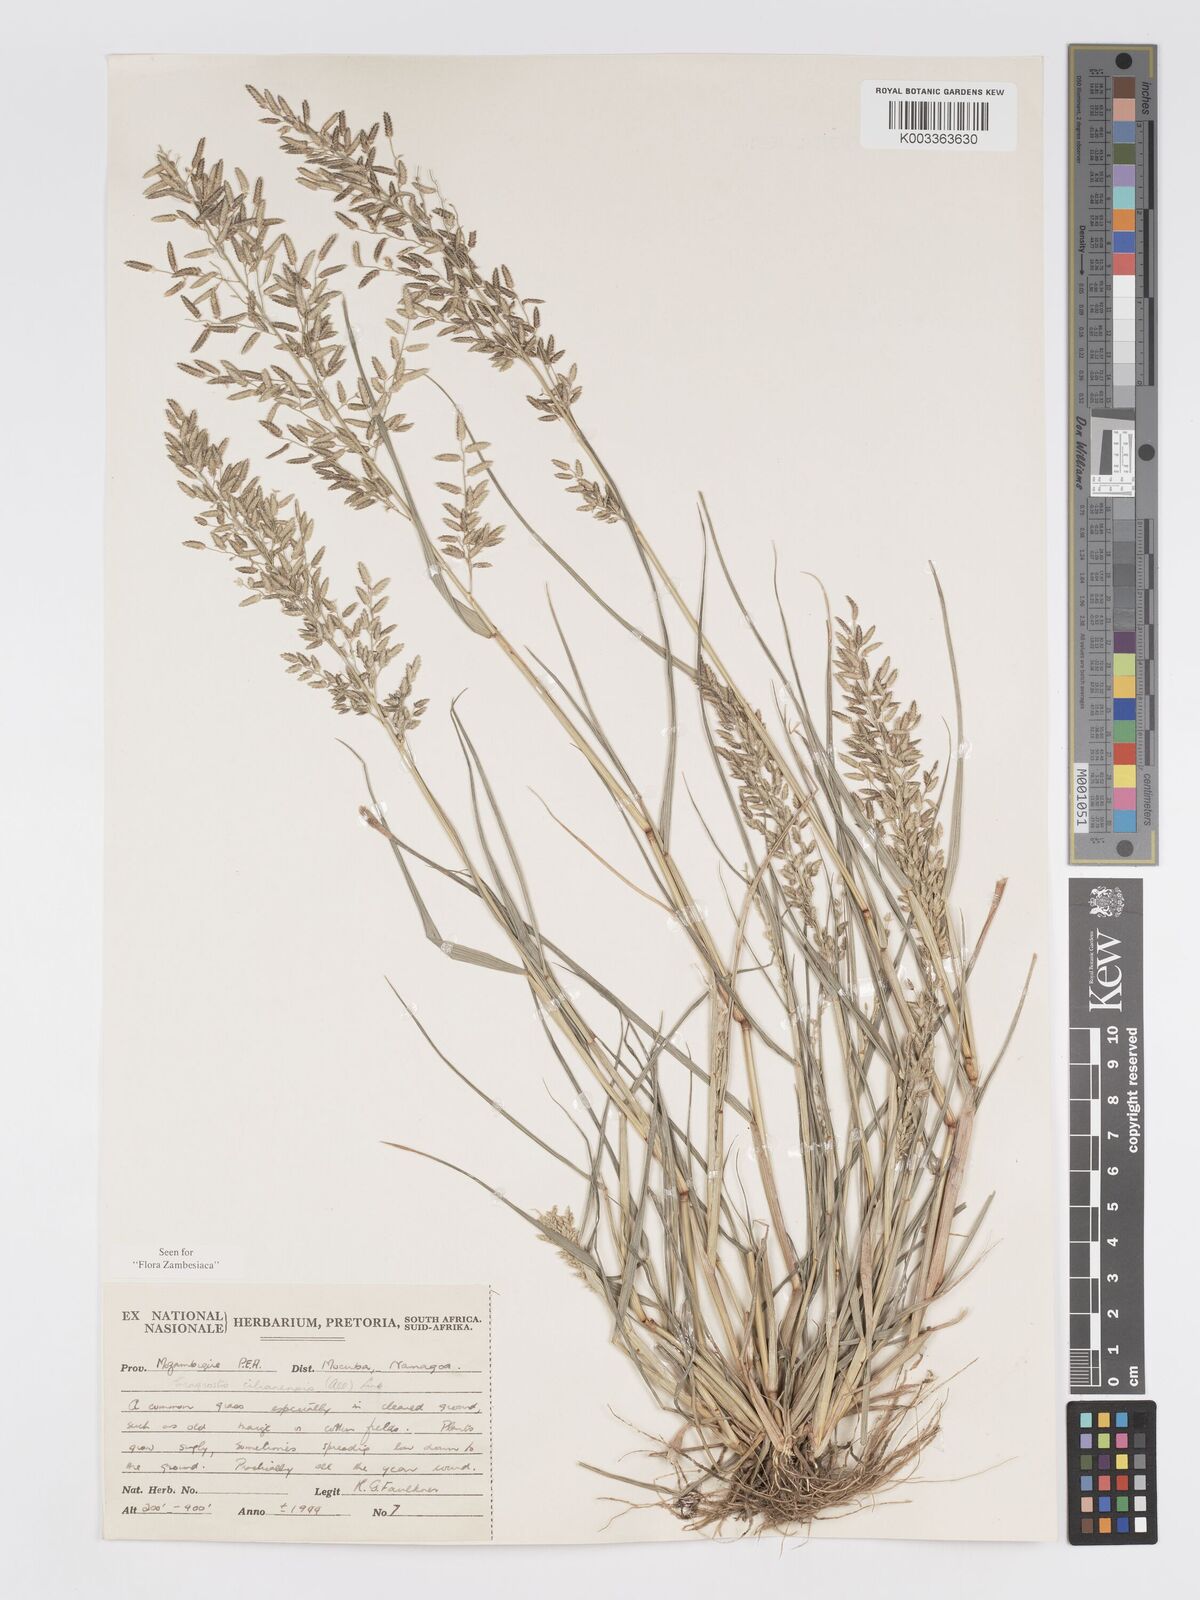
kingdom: Plantae
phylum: Tracheophyta
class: Liliopsida
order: Poales
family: Poaceae
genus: Eragrostis
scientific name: Eragrostis cilianensis
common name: Stinkgrass
